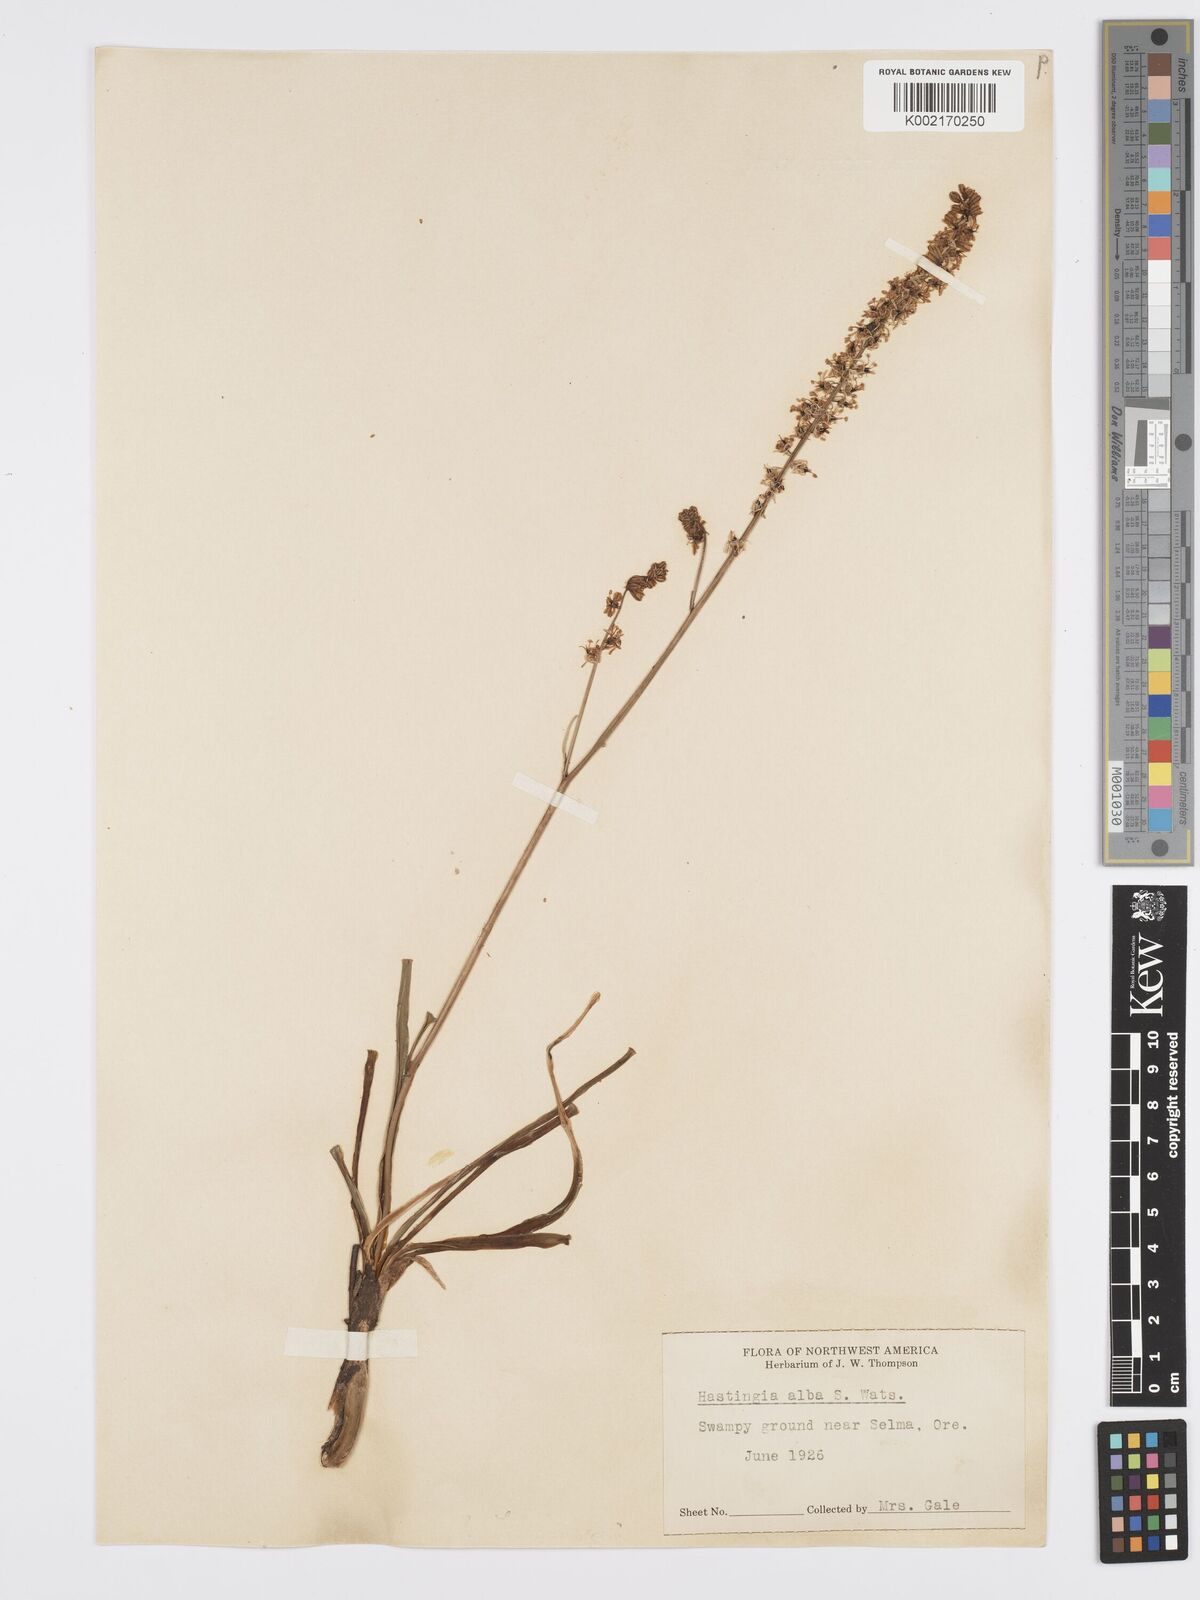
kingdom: Plantae
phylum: Tracheophyta
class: Liliopsida
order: Asparagales
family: Asparagaceae
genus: Hastingsia
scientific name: Hastingsia alba
